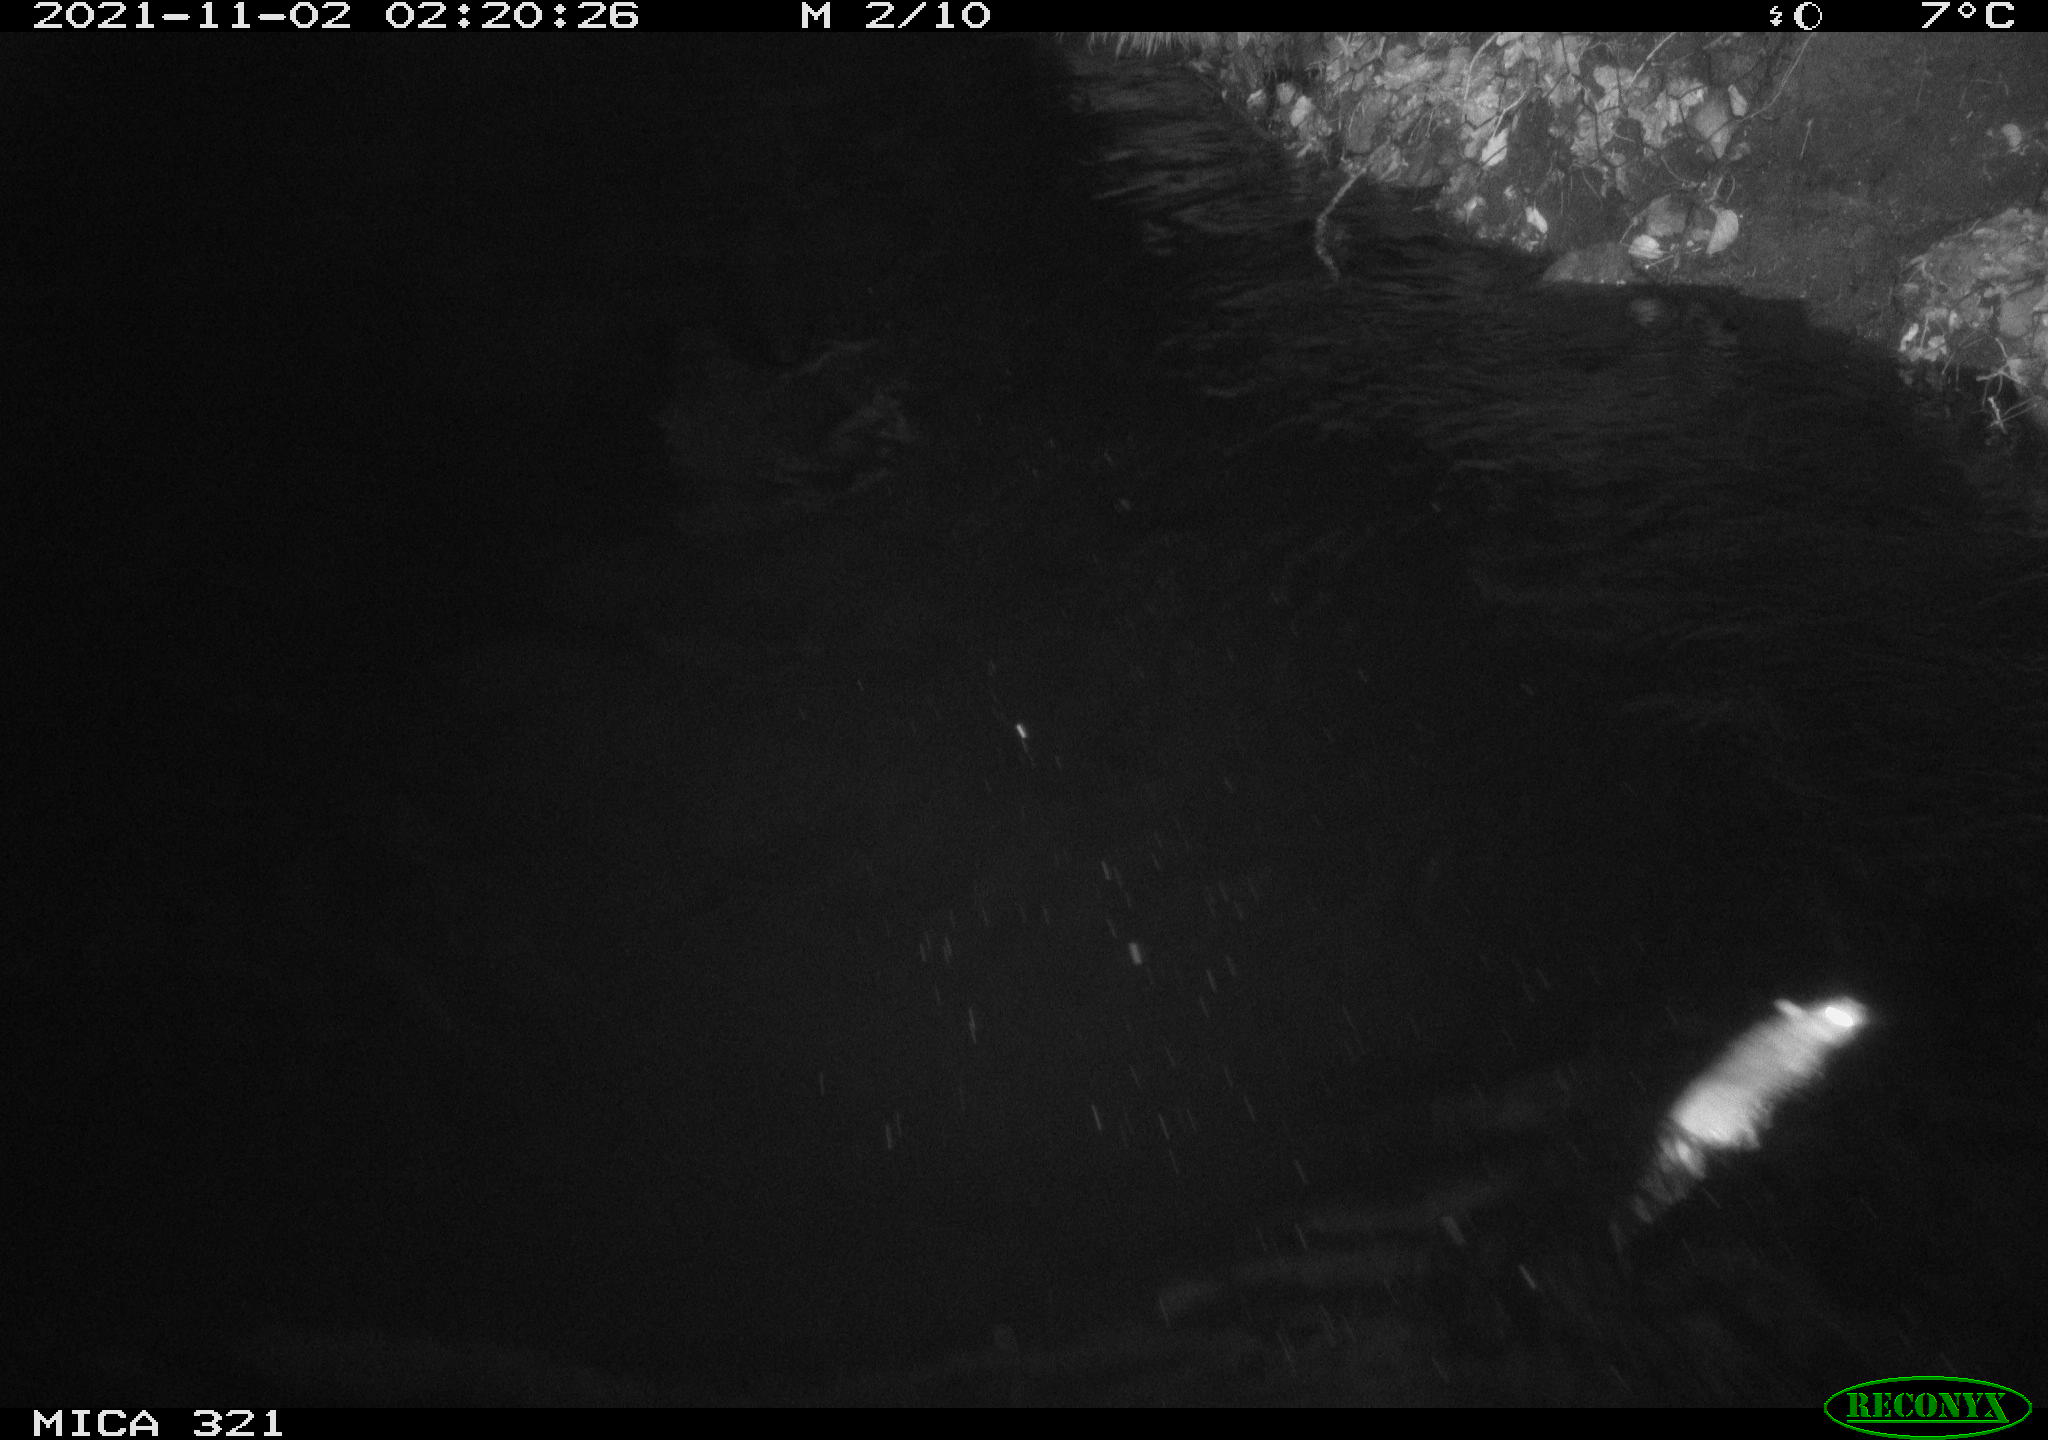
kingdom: Animalia
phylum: Chordata
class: Mammalia
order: Rodentia
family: Muridae
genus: Rattus
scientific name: Rattus norvegicus
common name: Brown rat
